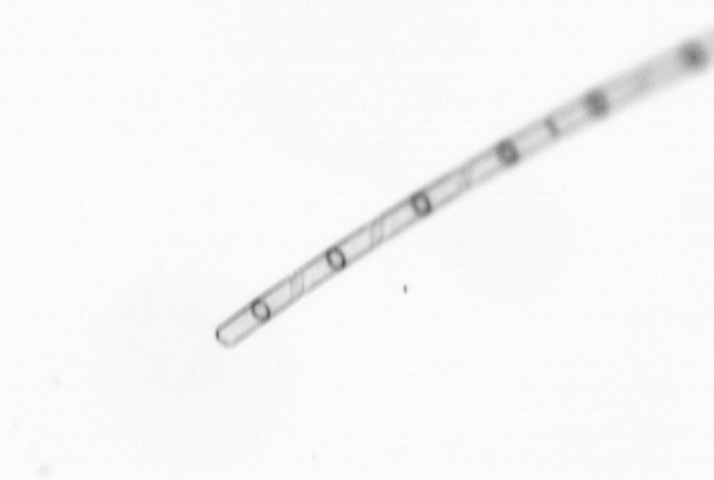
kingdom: Chromista
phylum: Ochrophyta
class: Bacillariophyceae
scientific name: Bacillariophyceae
